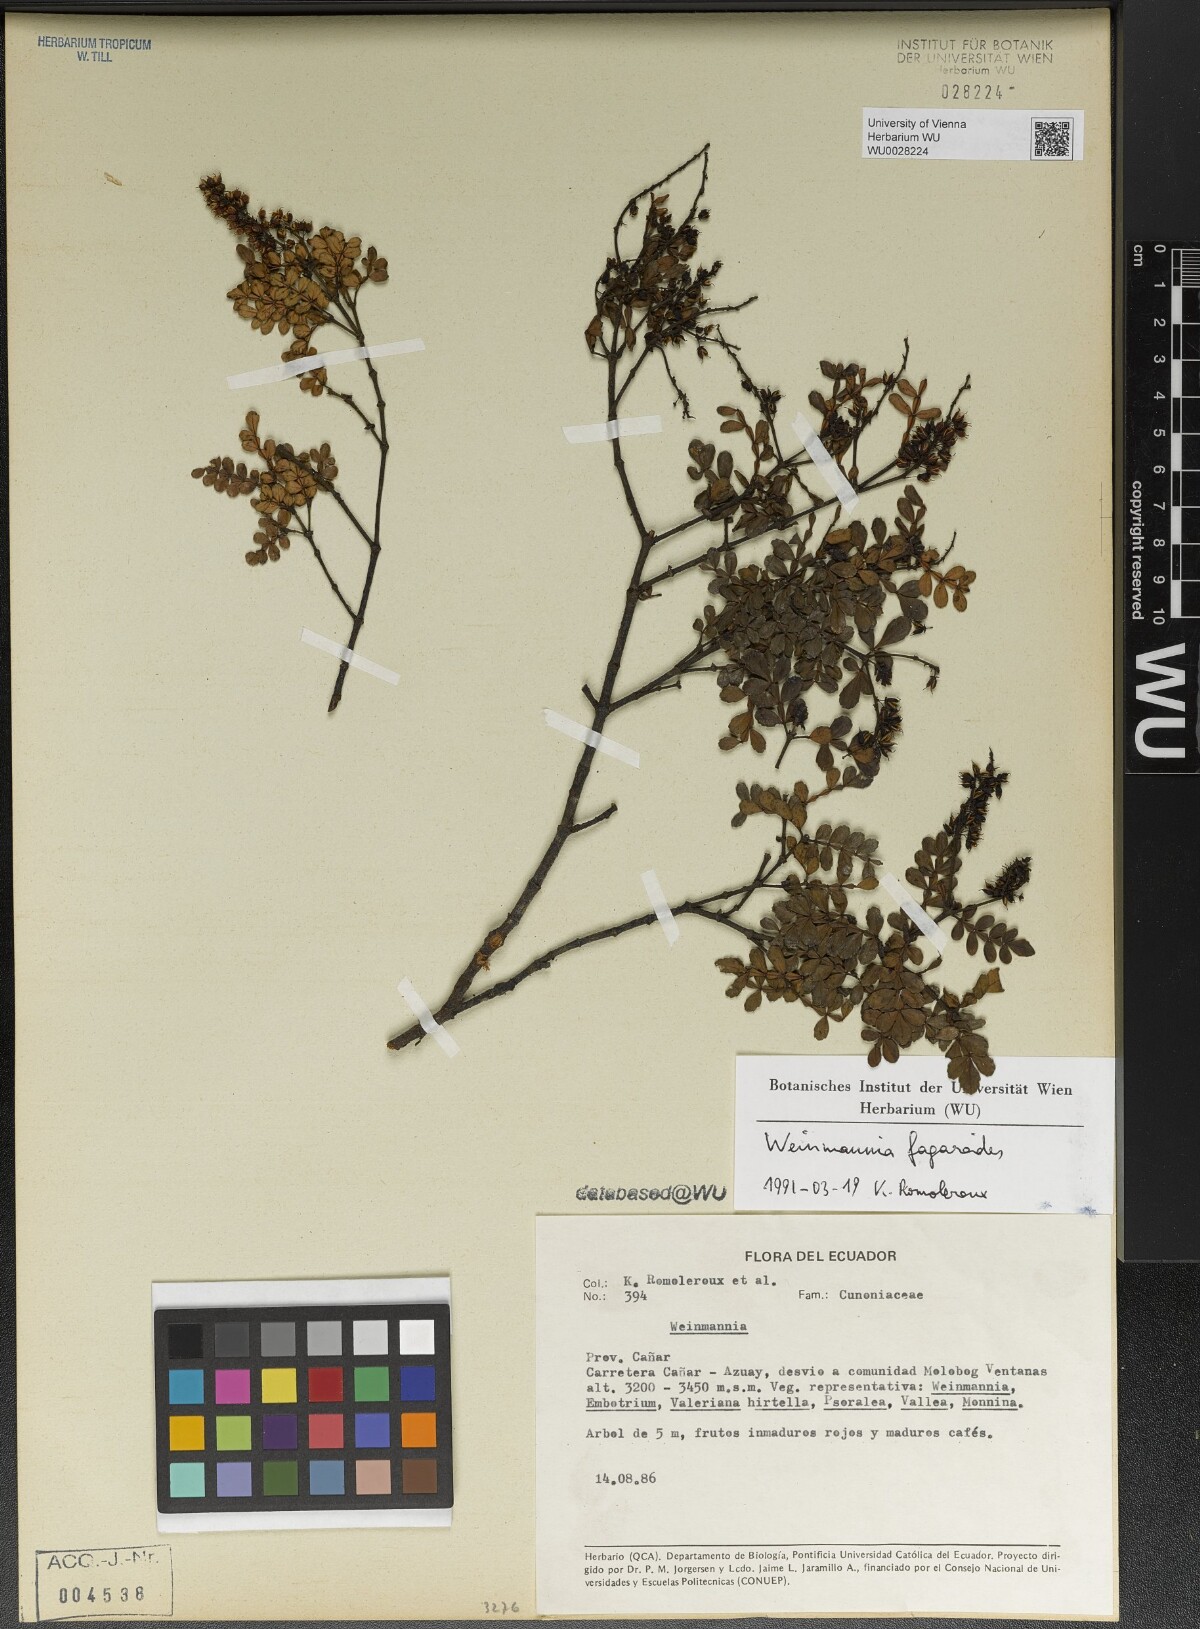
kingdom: Plantae
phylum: Tracheophyta
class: Magnoliopsida
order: Oxalidales
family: Cunoniaceae
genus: Weinmannia
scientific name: Weinmannia fagaroides
